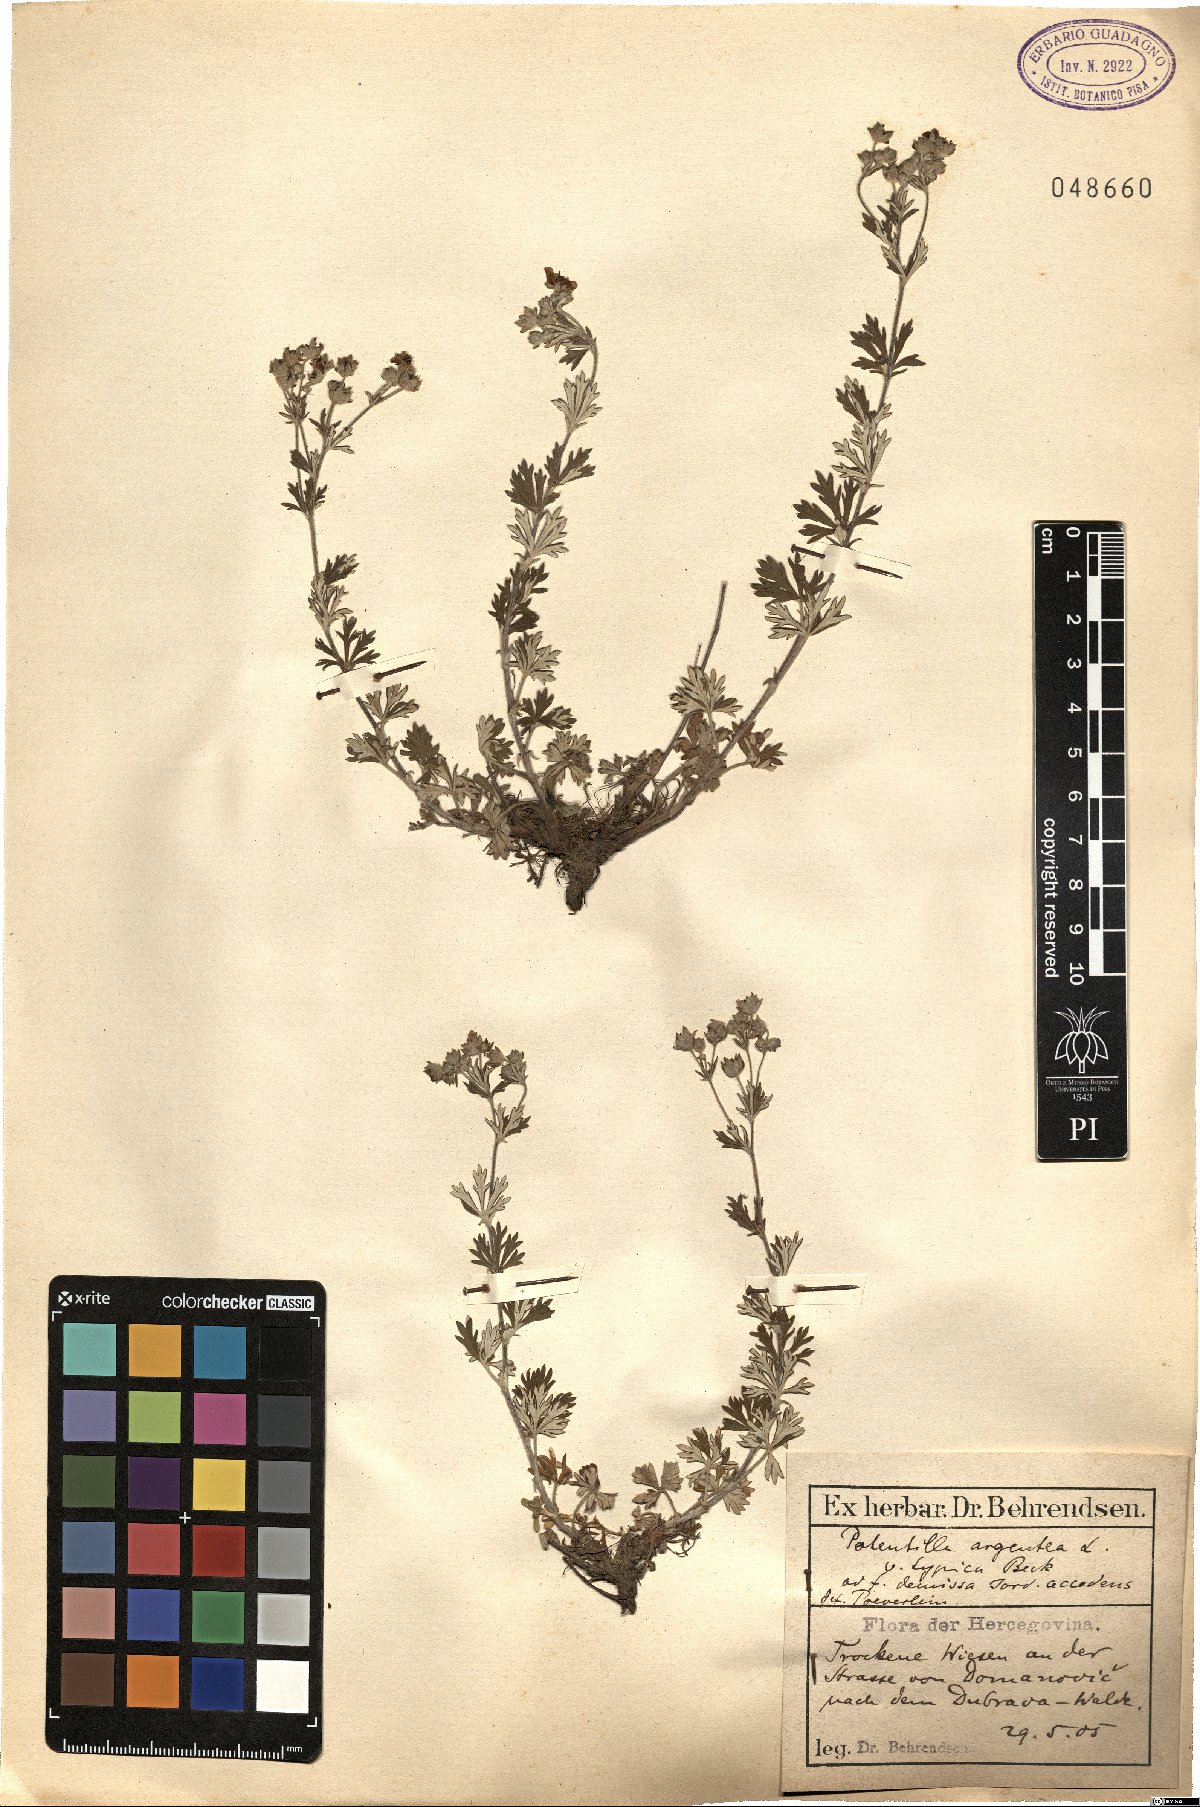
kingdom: Plantae
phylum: Tracheophyta
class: Magnoliopsida
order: Rosales
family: Rosaceae
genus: Potentilla
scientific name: Potentilla argentea
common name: Hoary cinquefoil
